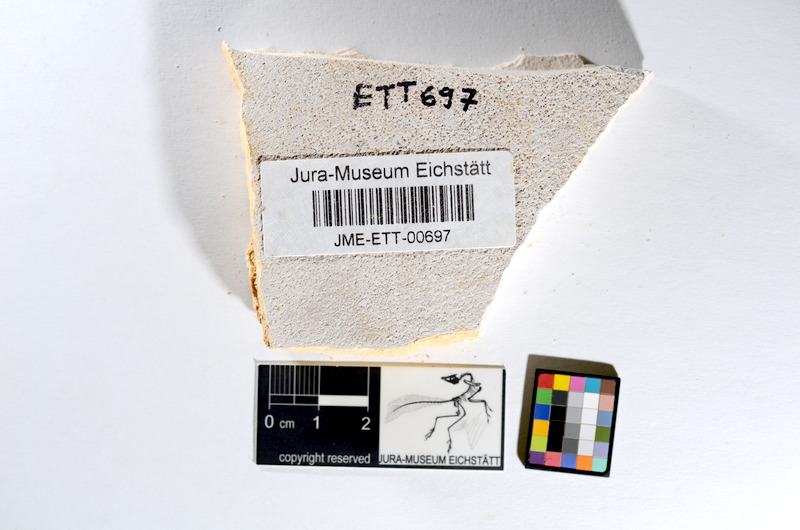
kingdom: Animalia
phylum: Chordata
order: Salmoniformes
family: Orthogonikleithridae
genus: Orthogonikleithrus
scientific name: Orthogonikleithrus hoelli
